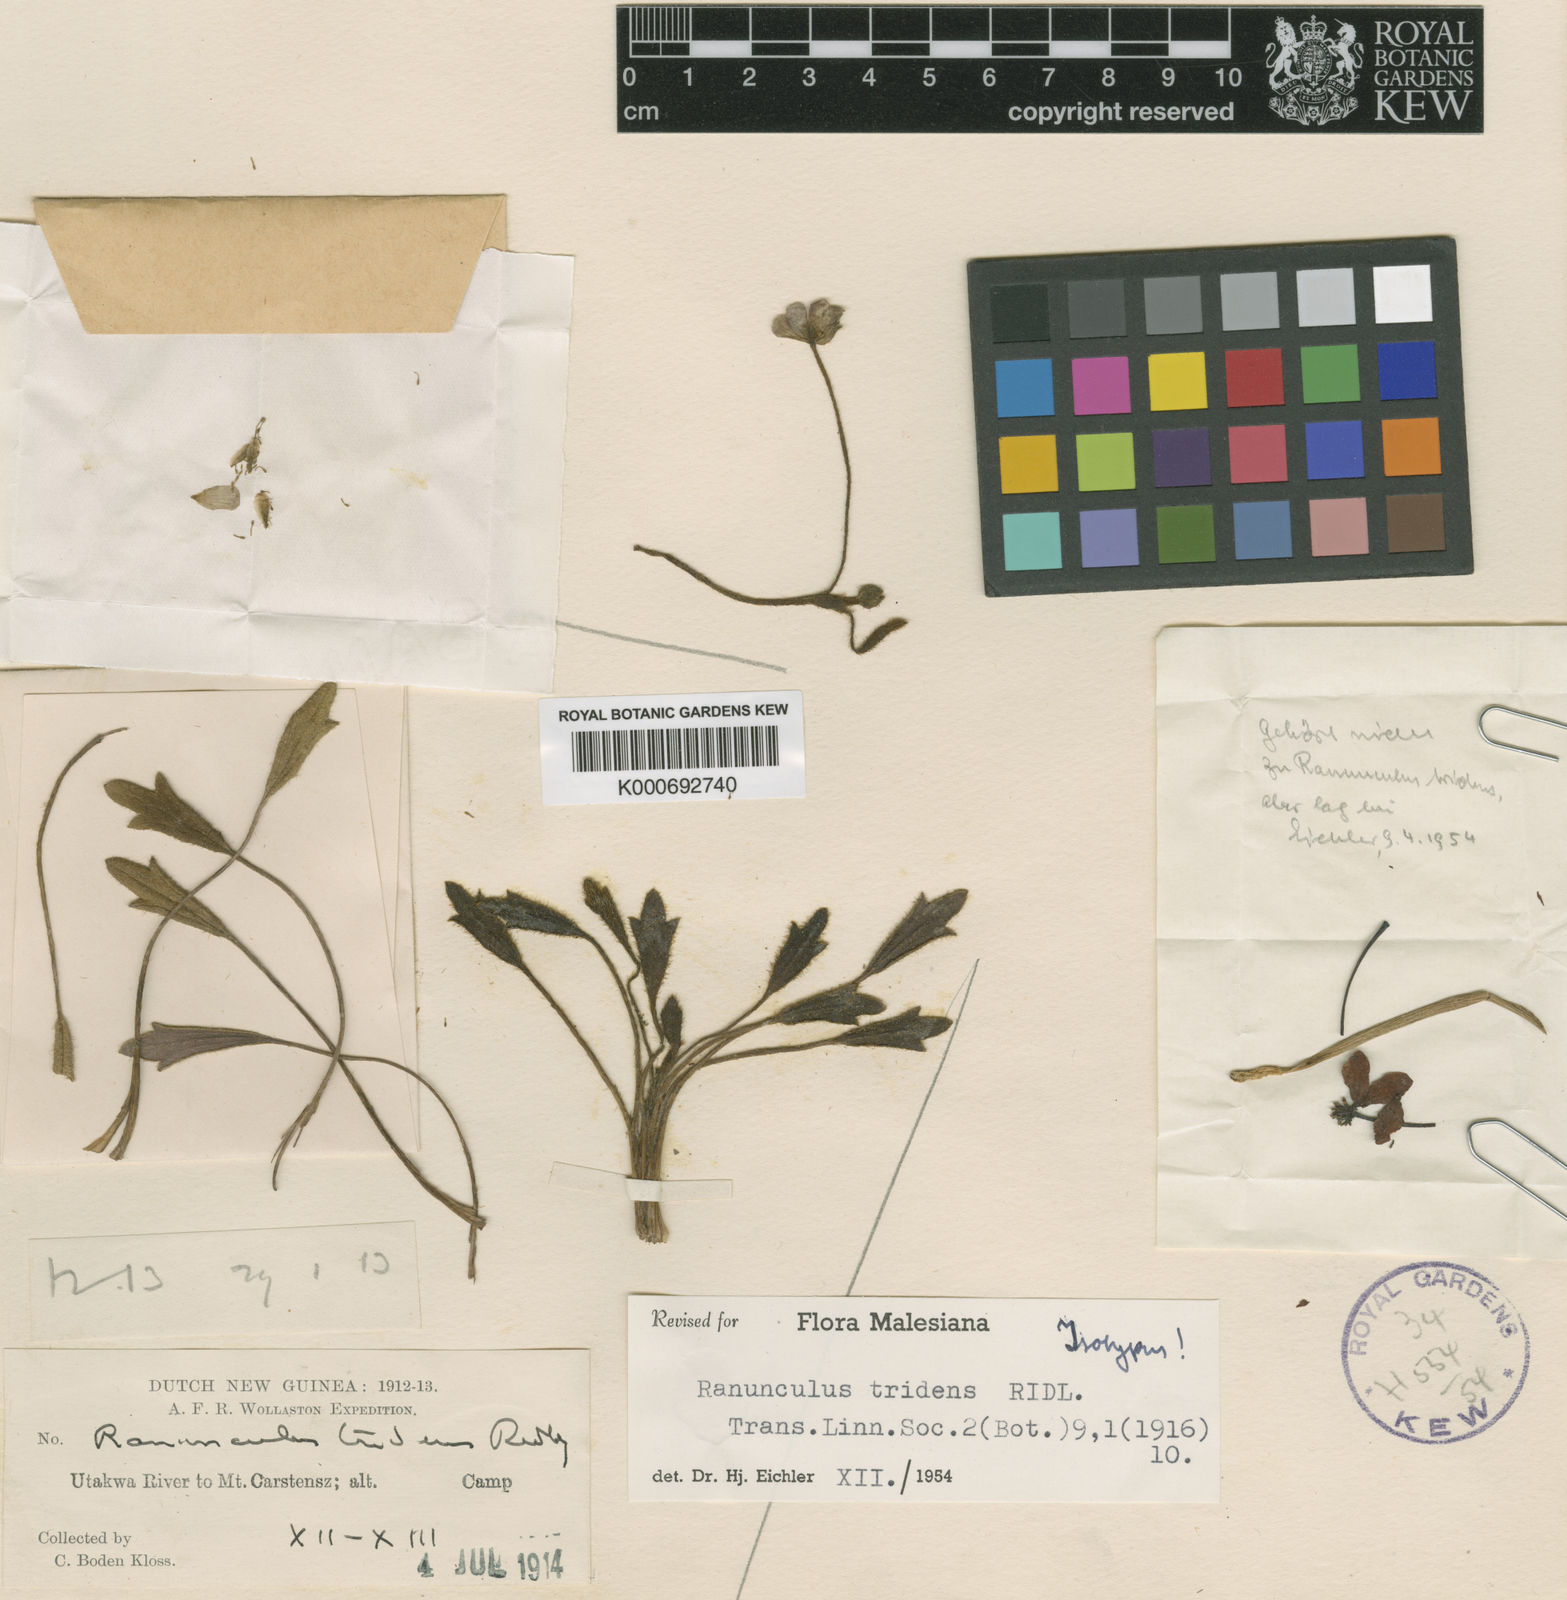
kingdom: Plantae
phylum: Tracheophyta
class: Magnoliopsida
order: Ranunculales
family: Ranunculaceae
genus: Ranunculus
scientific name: Ranunculus tridens
